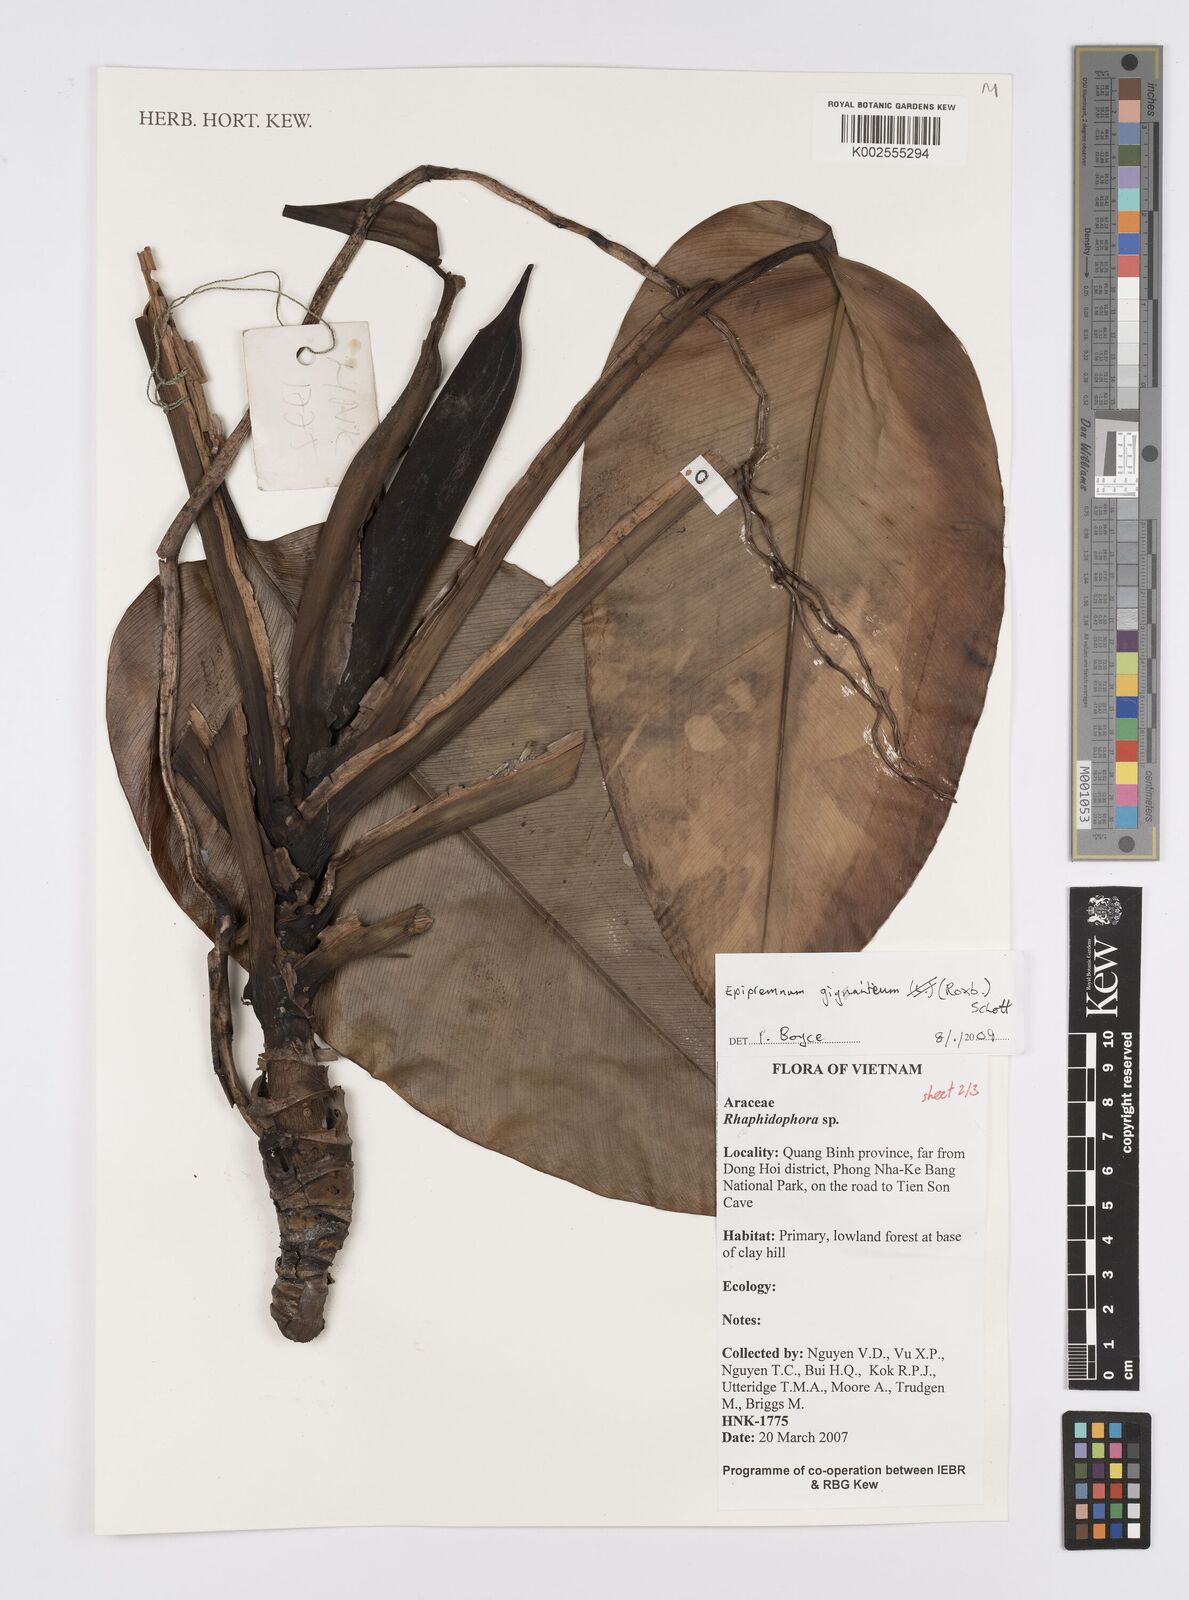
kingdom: Plantae
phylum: Tracheophyta
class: Liliopsida
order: Alismatales
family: Araceae
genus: Epipremnum
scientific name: Epipremnum giganteum
